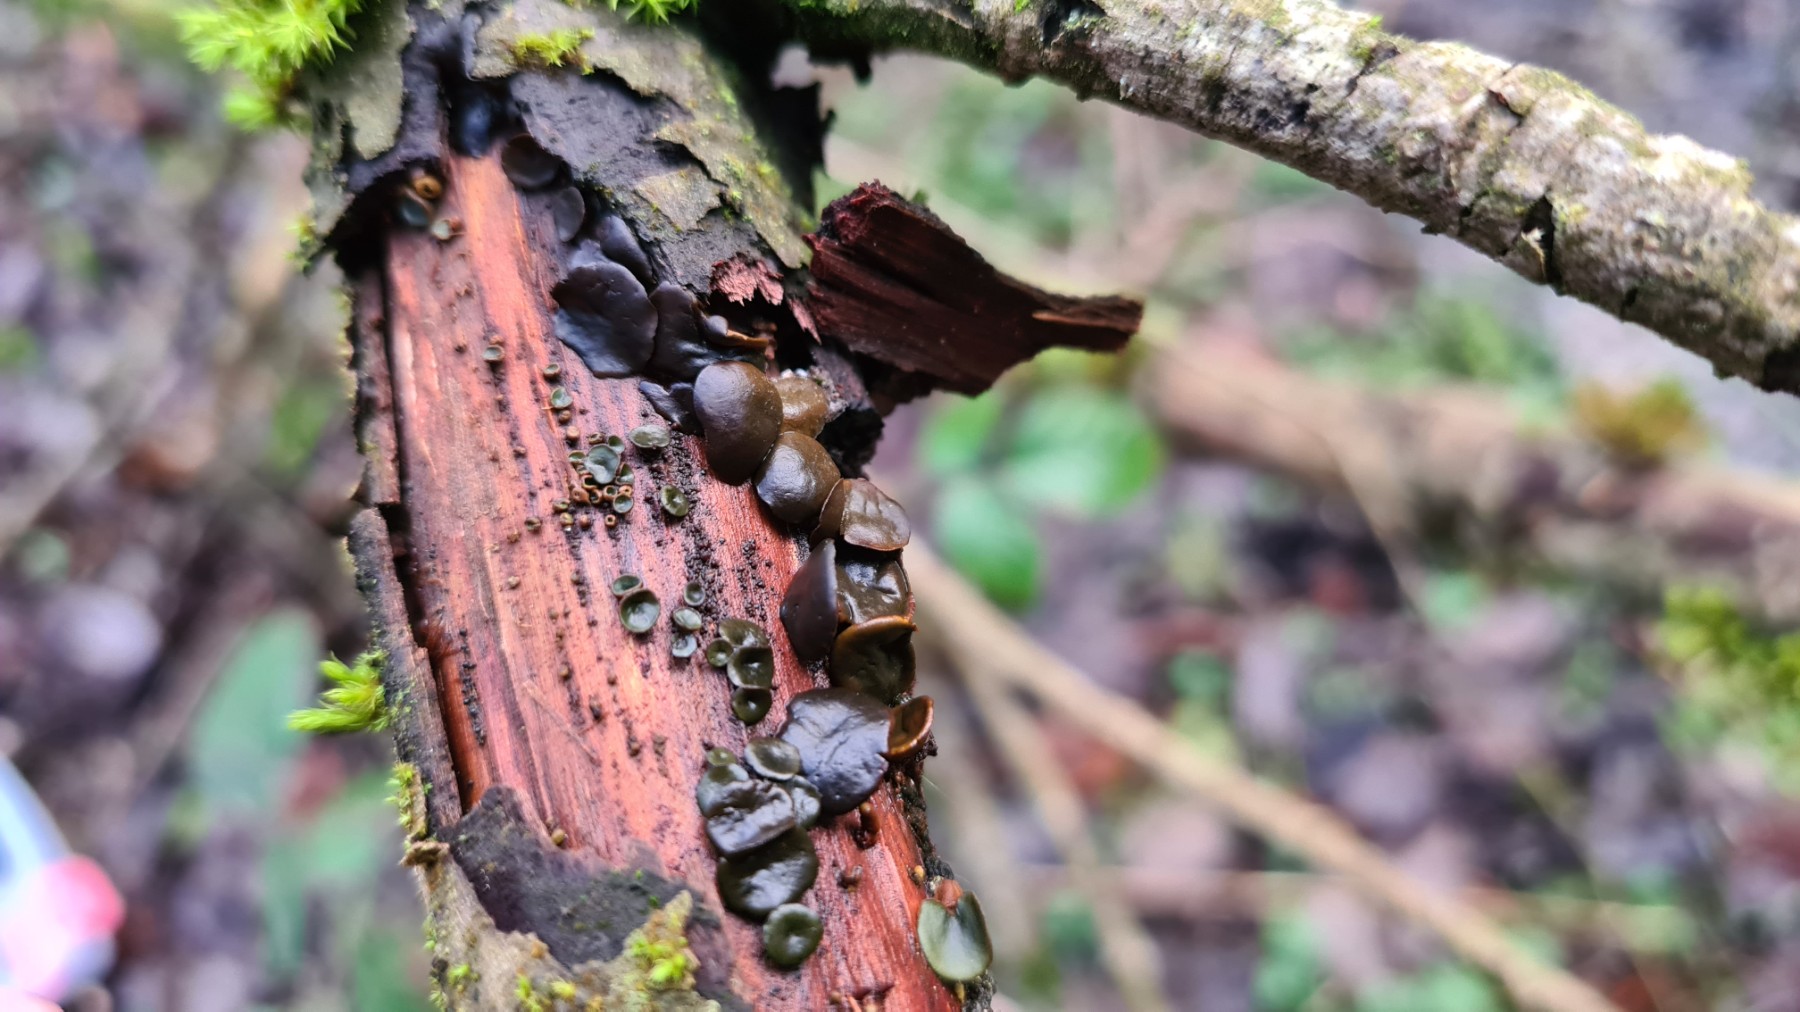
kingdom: Fungi
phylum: Ascomycota
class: Leotiomycetes
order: Helotiales
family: Cordieritidaceae
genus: Ionomidotis
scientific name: Ionomidotis fulvotingens
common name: rødmende tjæreskive
